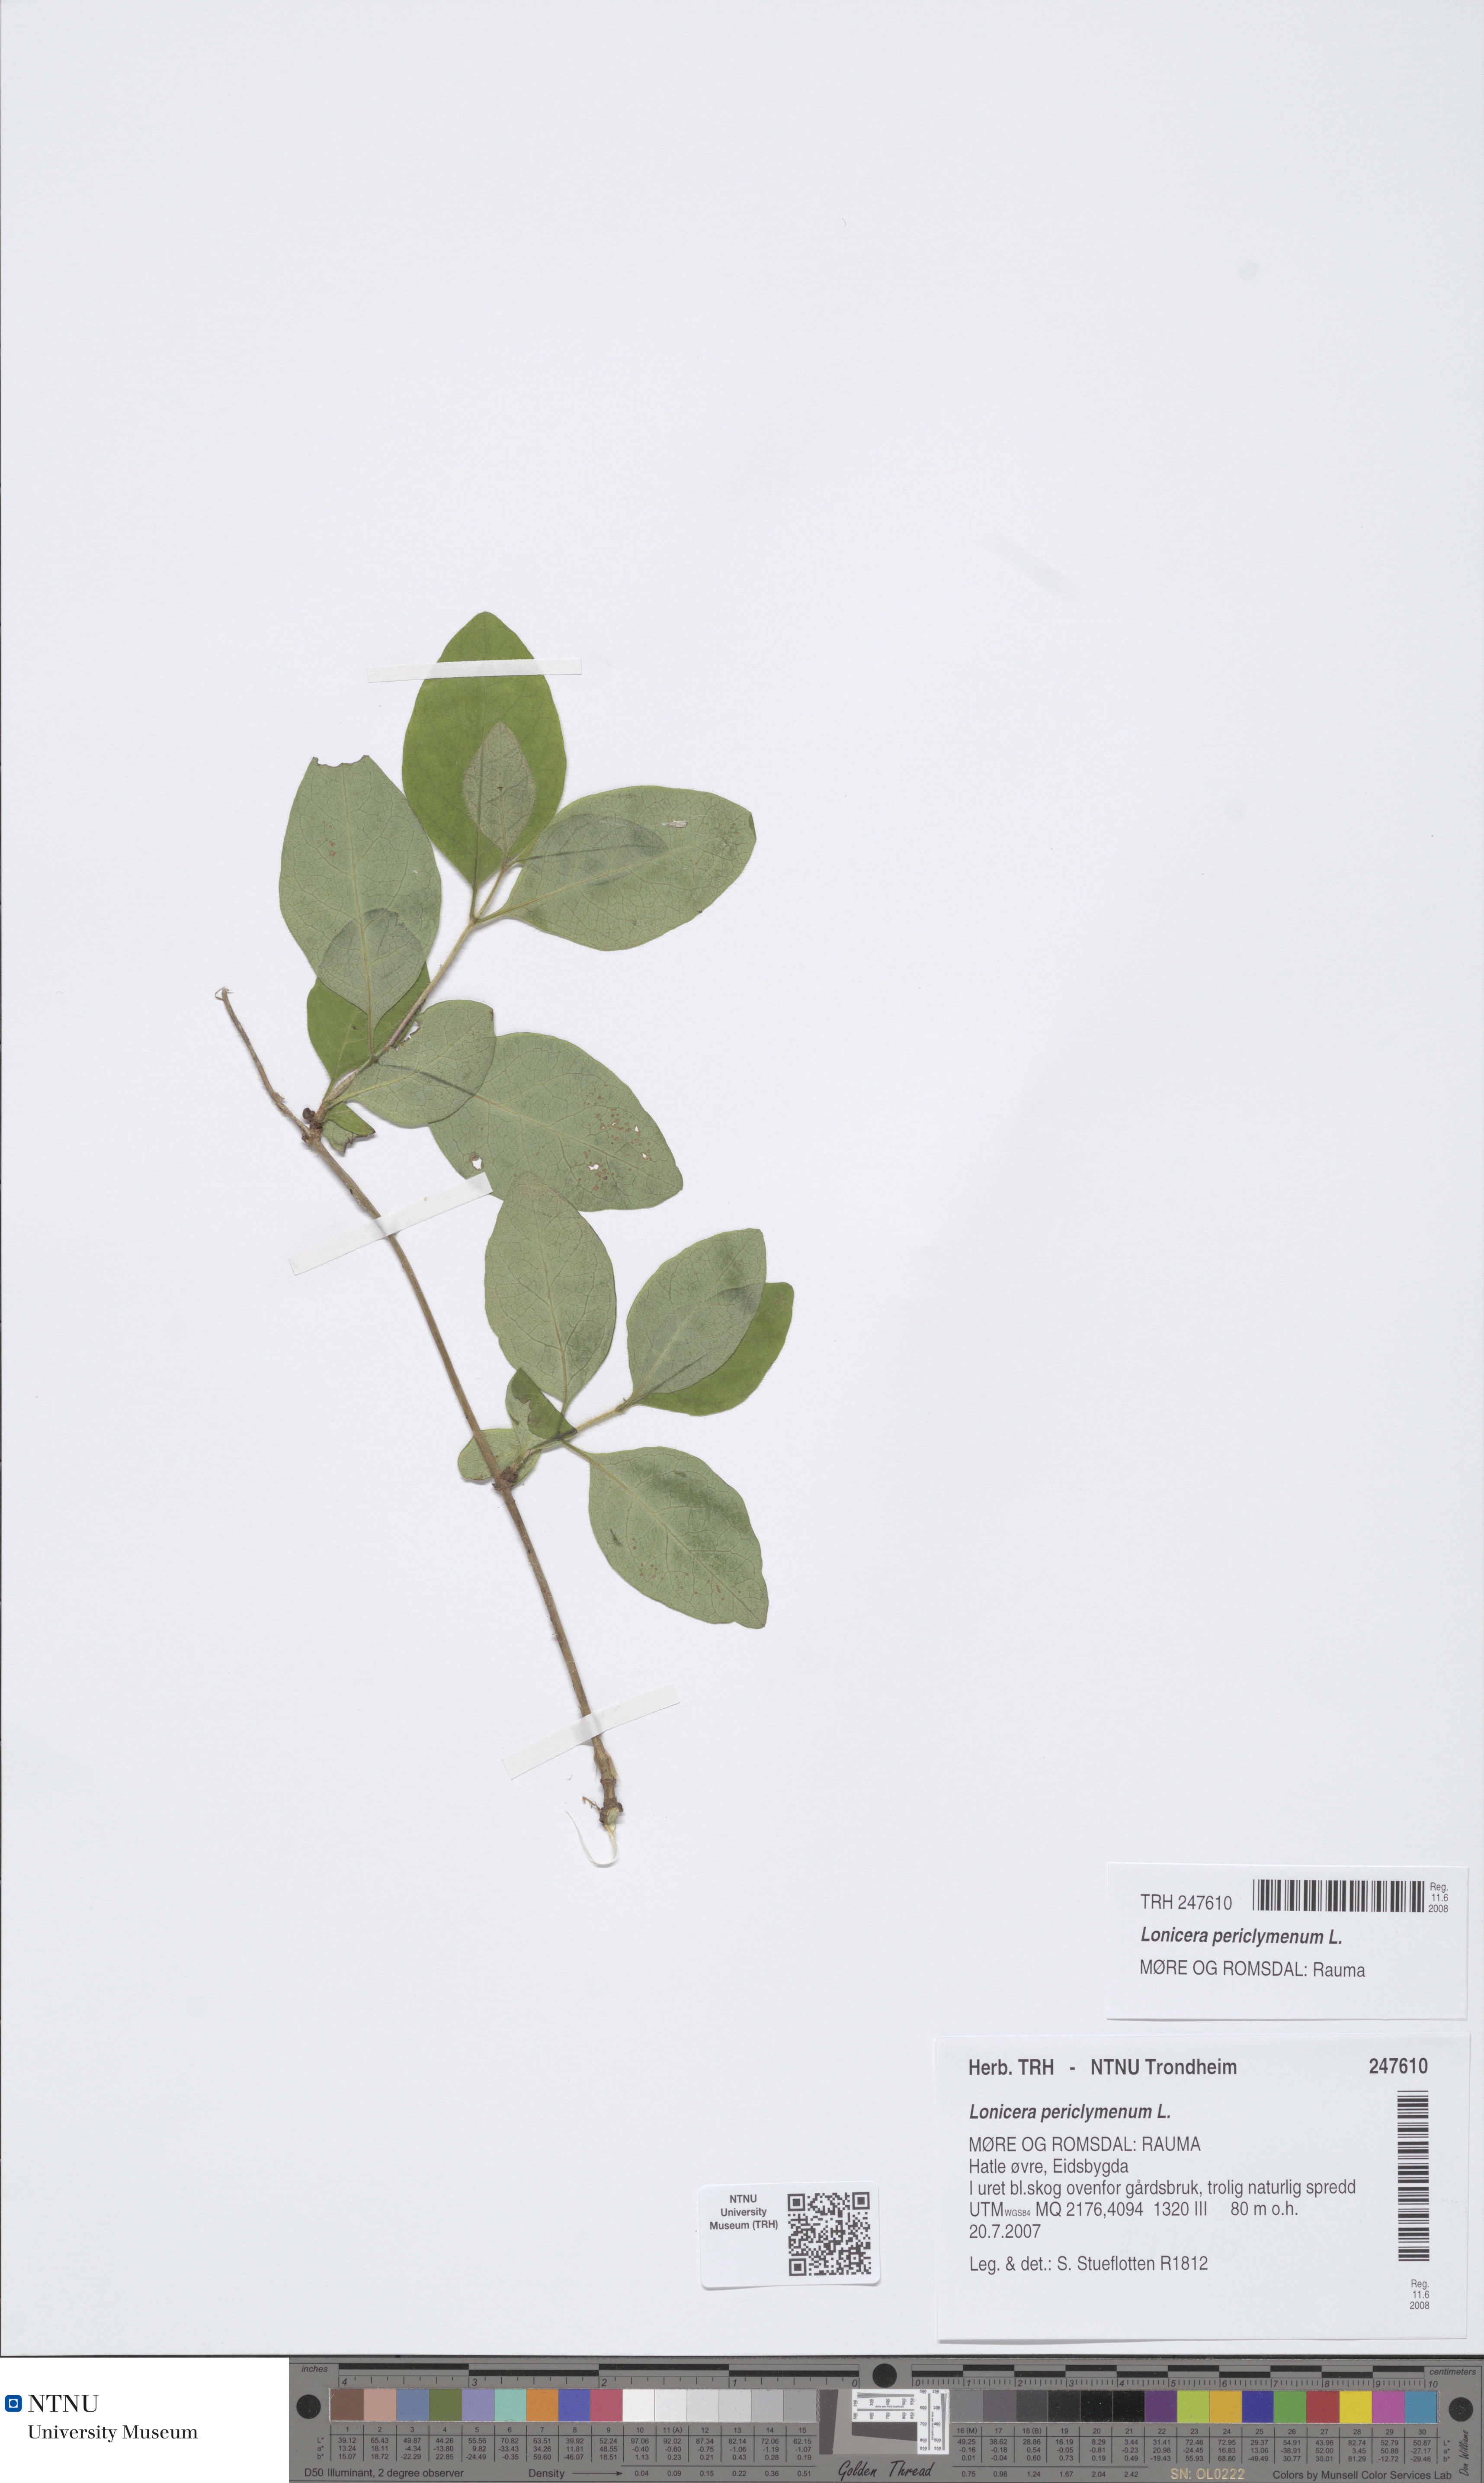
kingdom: Plantae
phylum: Tracheophyta
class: Magnoliopsida
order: Dipsacales
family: Caprifoliaceae
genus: Lonicera
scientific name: Lonicera periclymenum
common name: European honeysuckle
